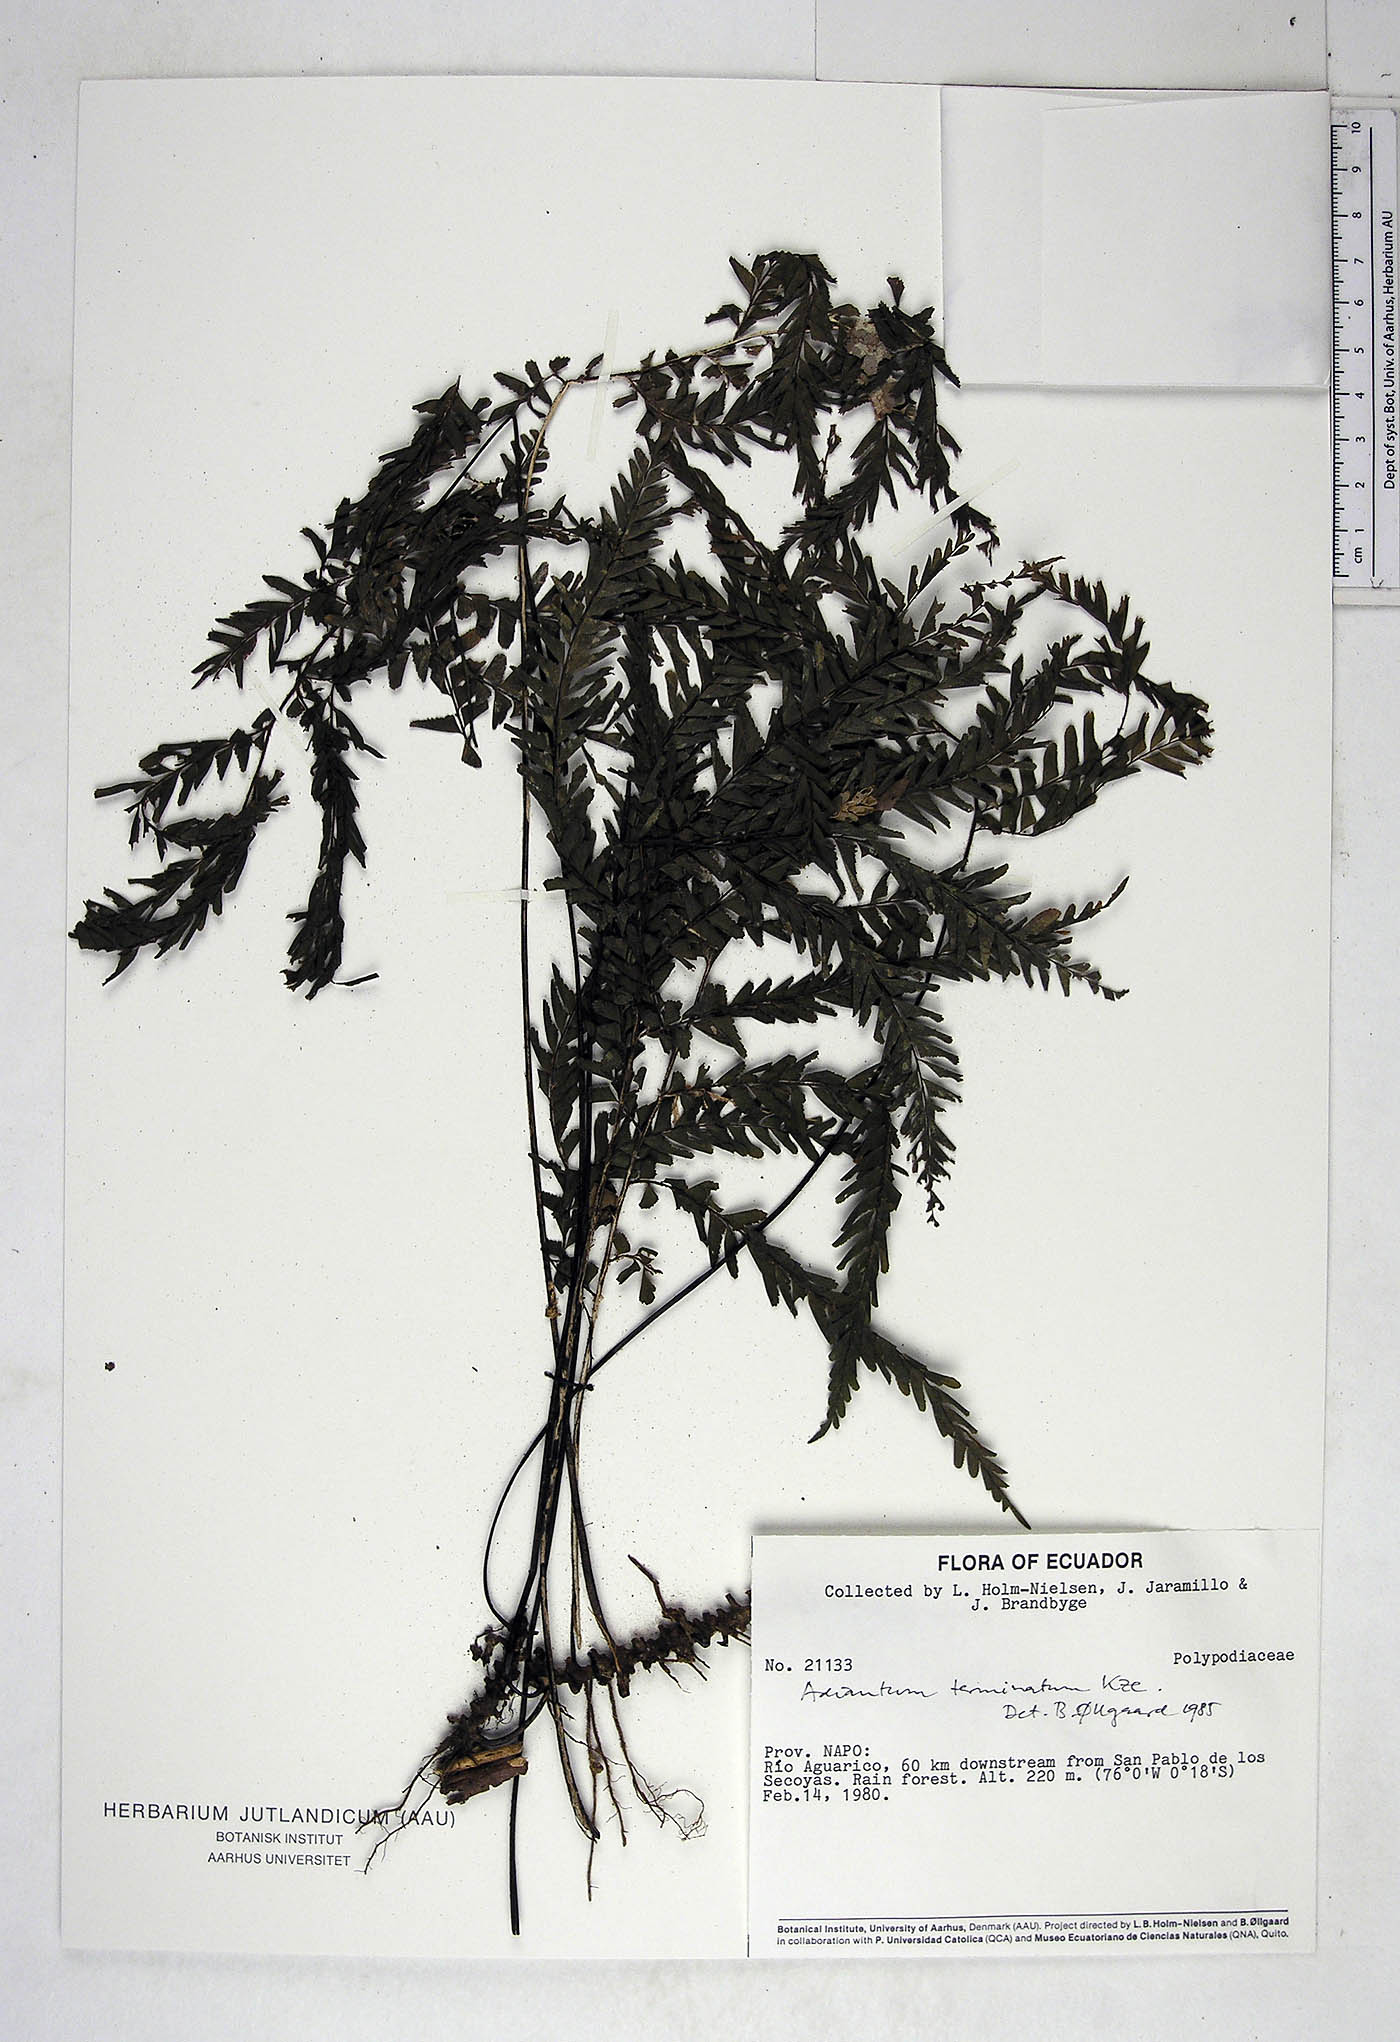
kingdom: Plantae
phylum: Tracheophyta
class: Polypodiopsida
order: Polypodiales
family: Pteridaceae
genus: Adiantum
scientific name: Adiantum terminatum
